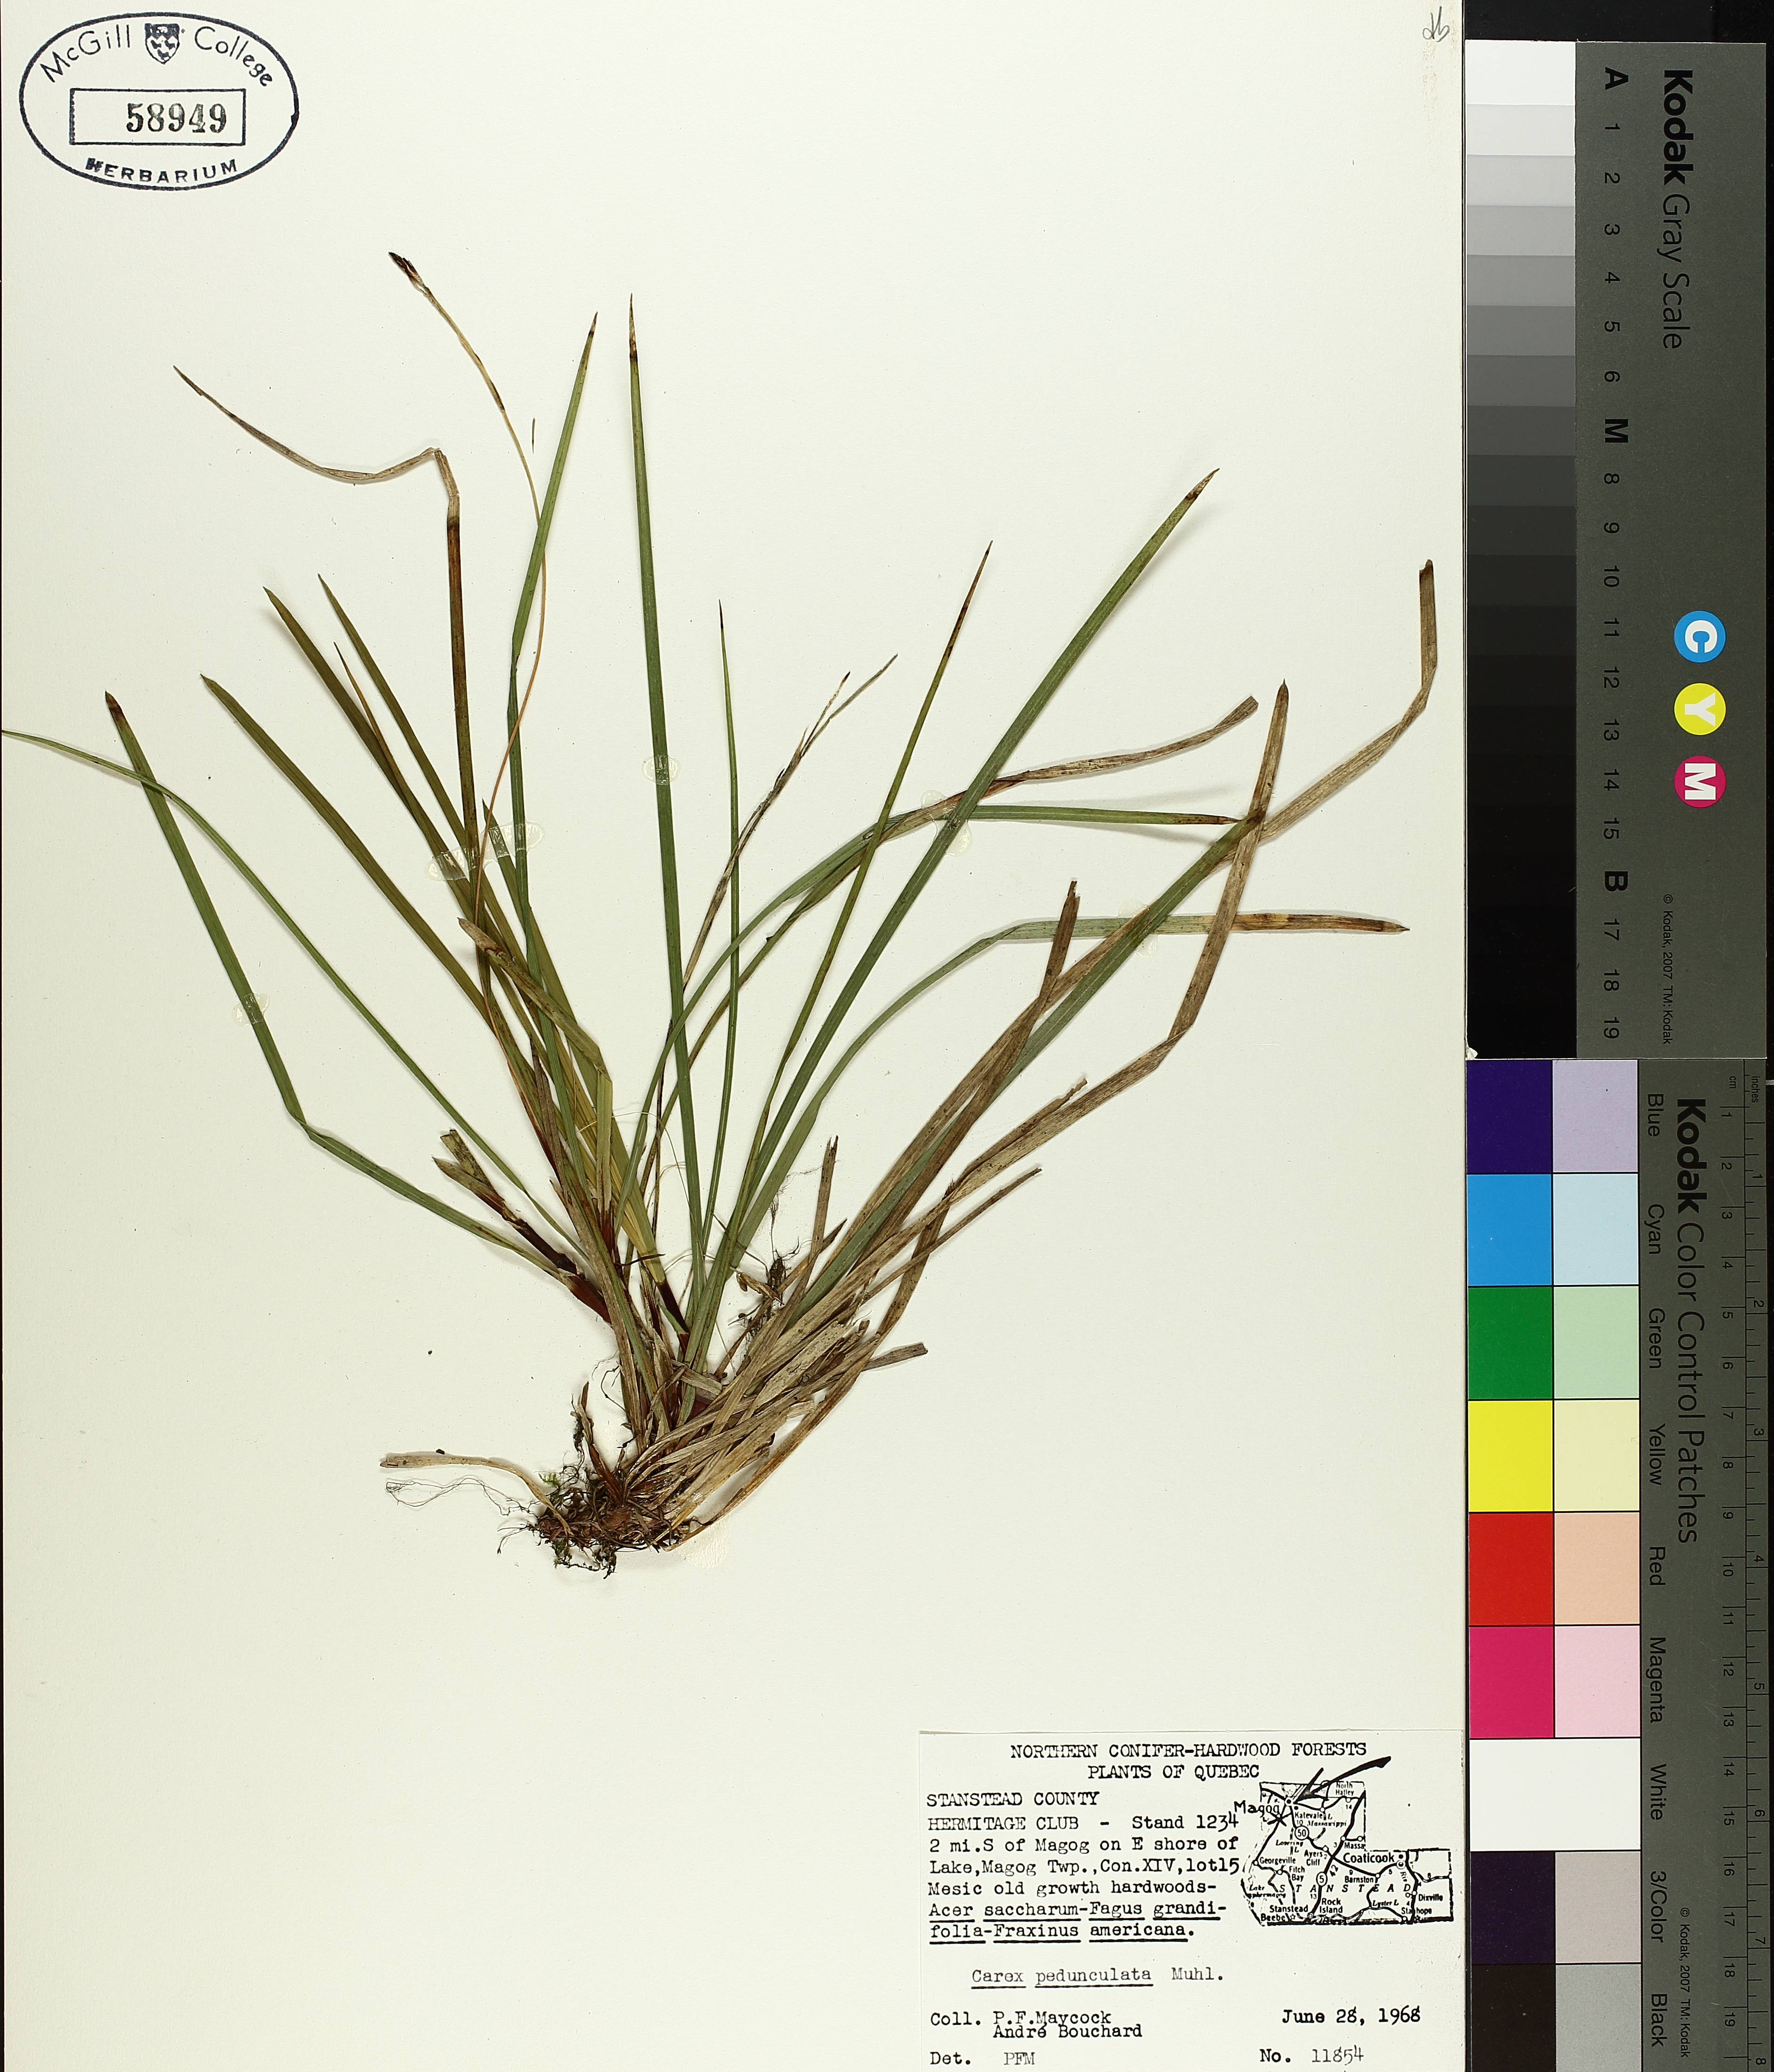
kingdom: Plantae
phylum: Tracheophyta
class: Liliopsida
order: Poales
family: Cyperaceae
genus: Carex
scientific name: Carex pedunculata
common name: Pedunculate sedge
